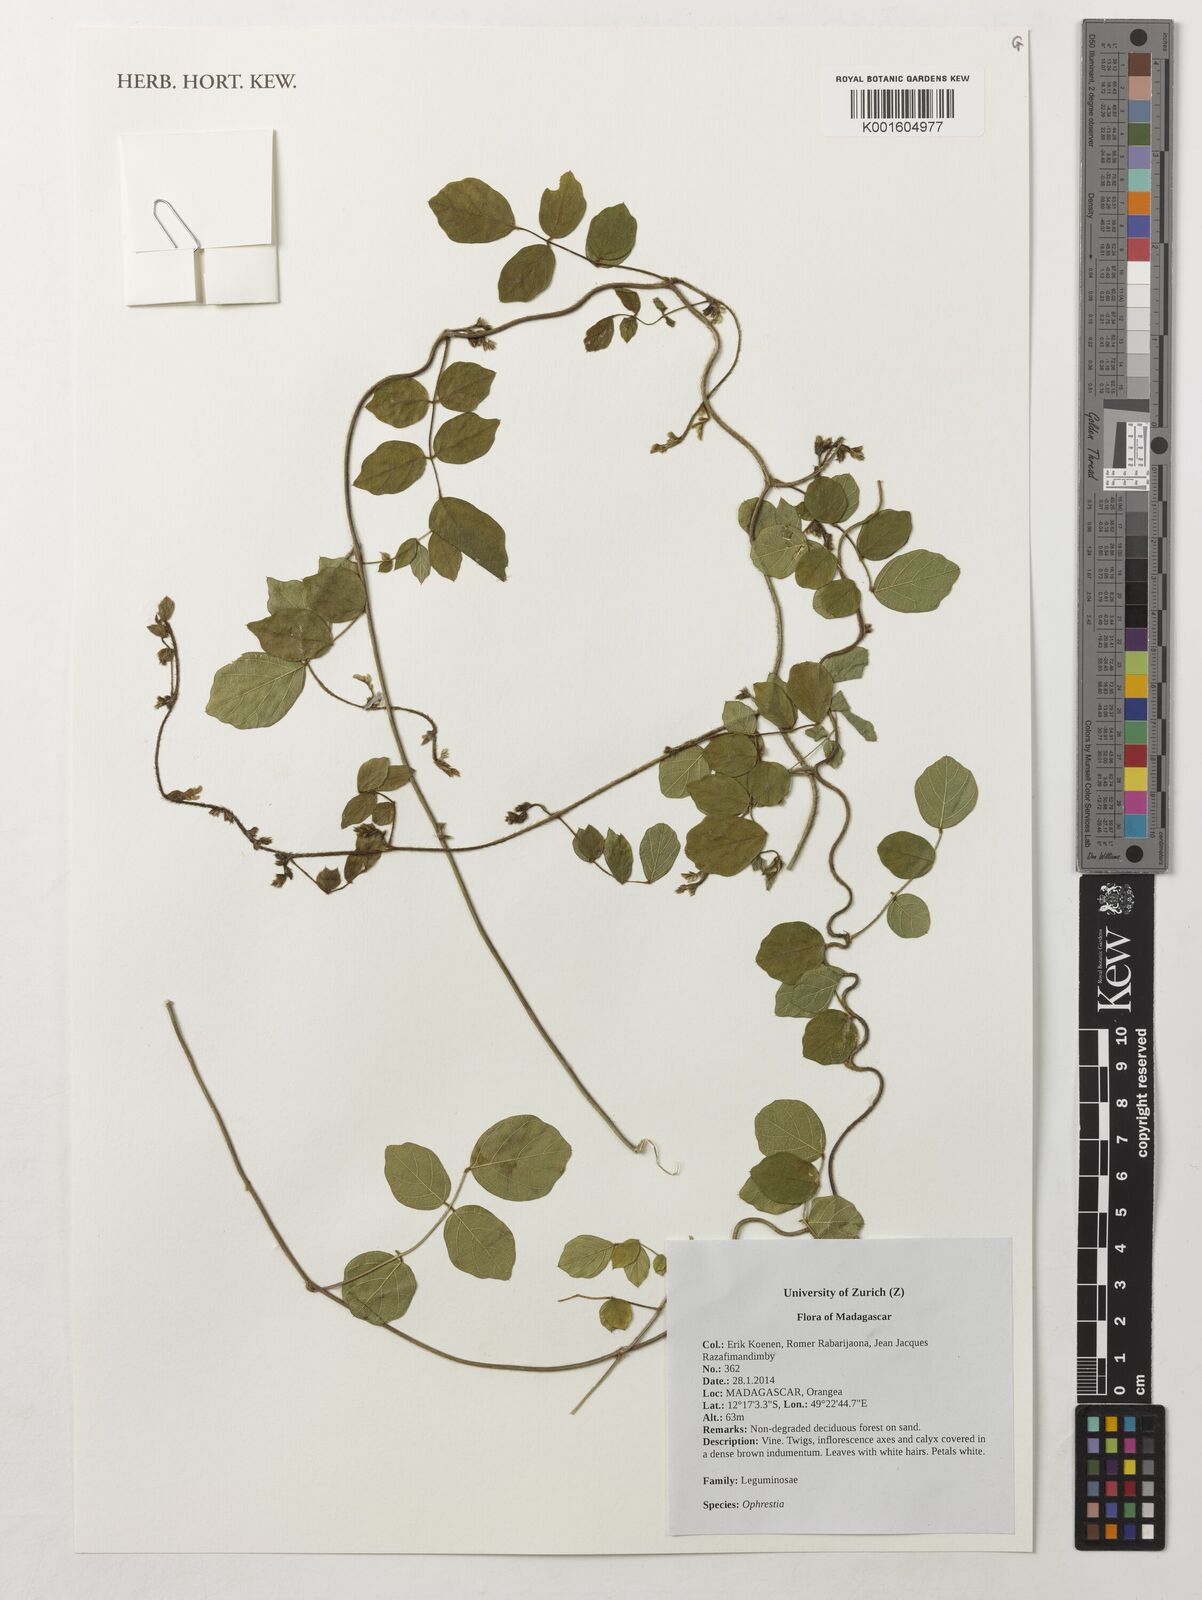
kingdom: Plantae
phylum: Tracheophyta
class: Magnoliopsida
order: Fabales
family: Fabaceae
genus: Ophrestia
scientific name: Ophrestia
